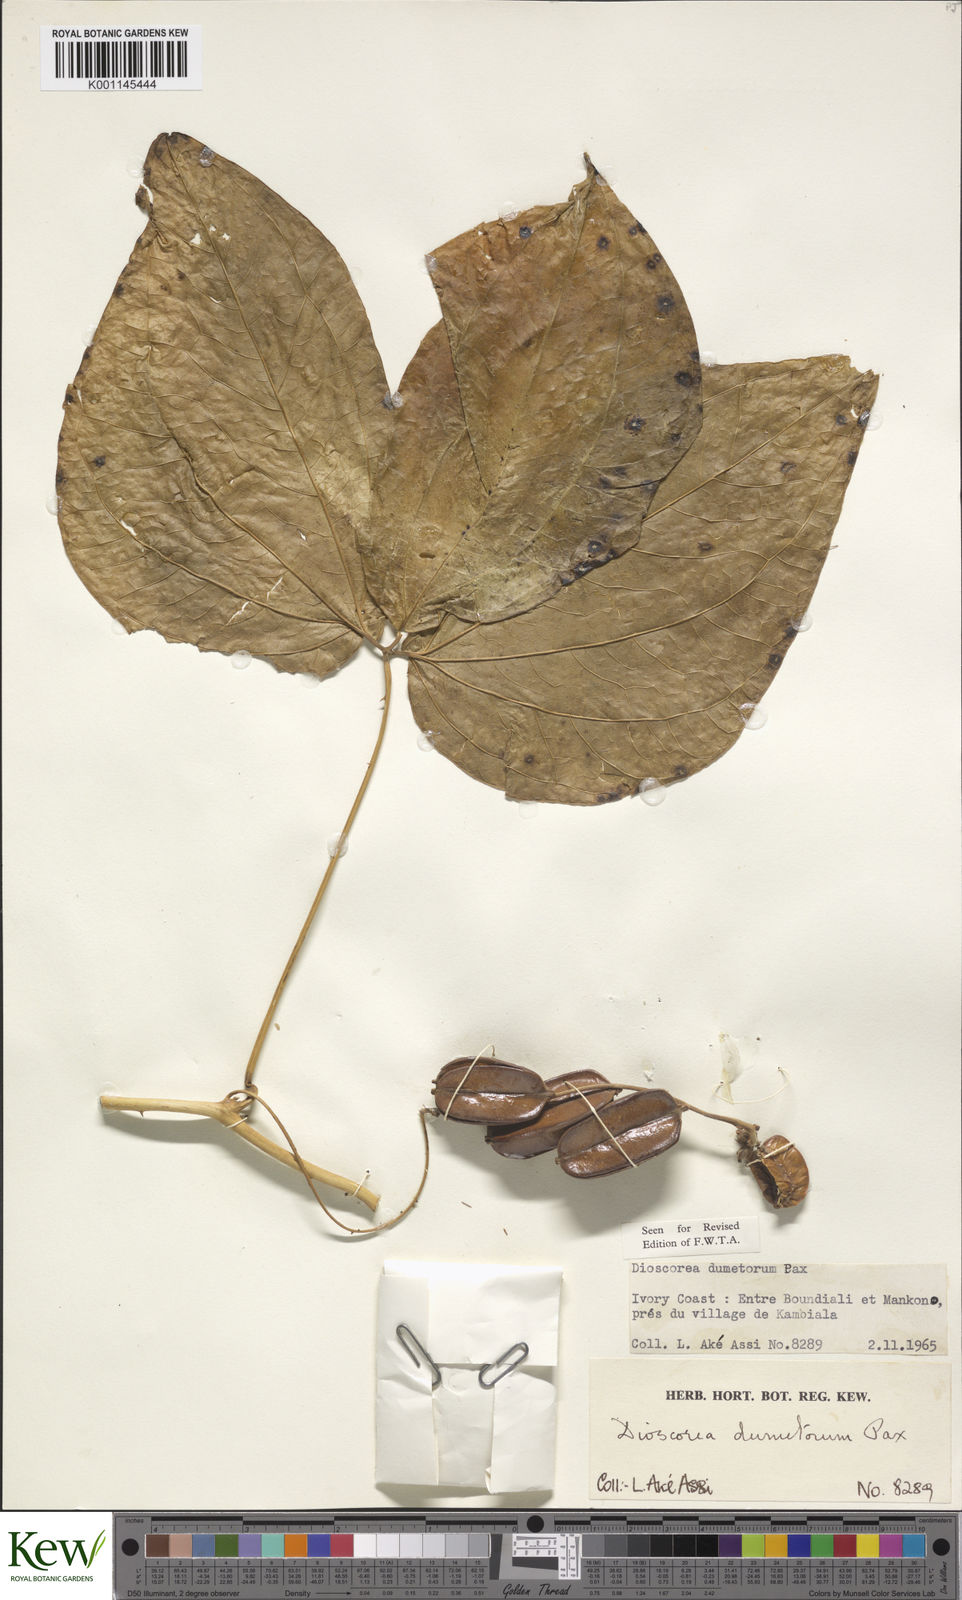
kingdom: Plantae
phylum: Tracheophyta
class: Liliopsida
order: Dioscoreales
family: Dioscoreaceae
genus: Dioscorea
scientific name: Dioscorea dumetorum
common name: African bitter yam
